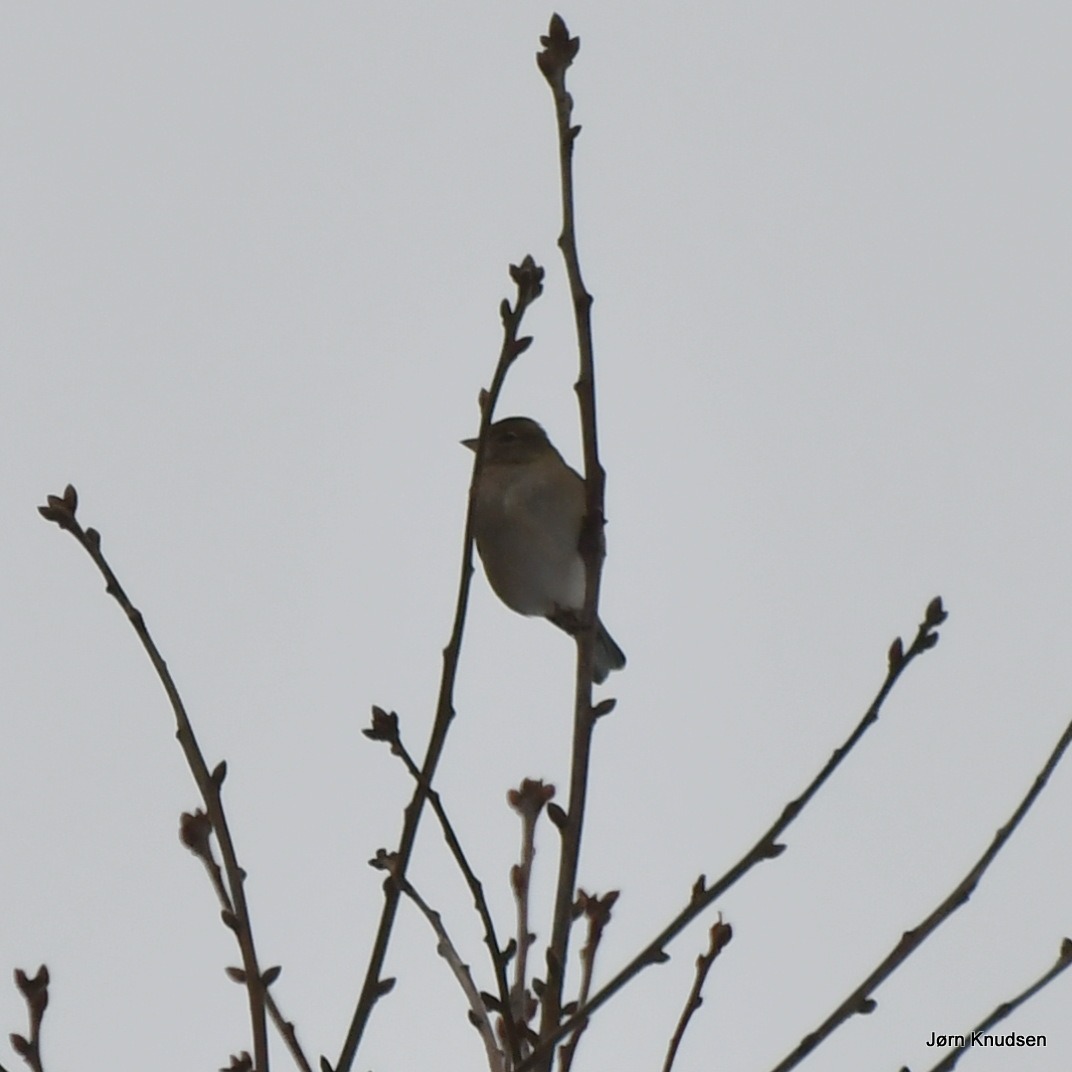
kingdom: Animalia
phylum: Chordata
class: Aves
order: Passeriformes
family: Fringillidae
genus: Fringilla
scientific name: Fringilla coelebs
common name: Bogfinke
